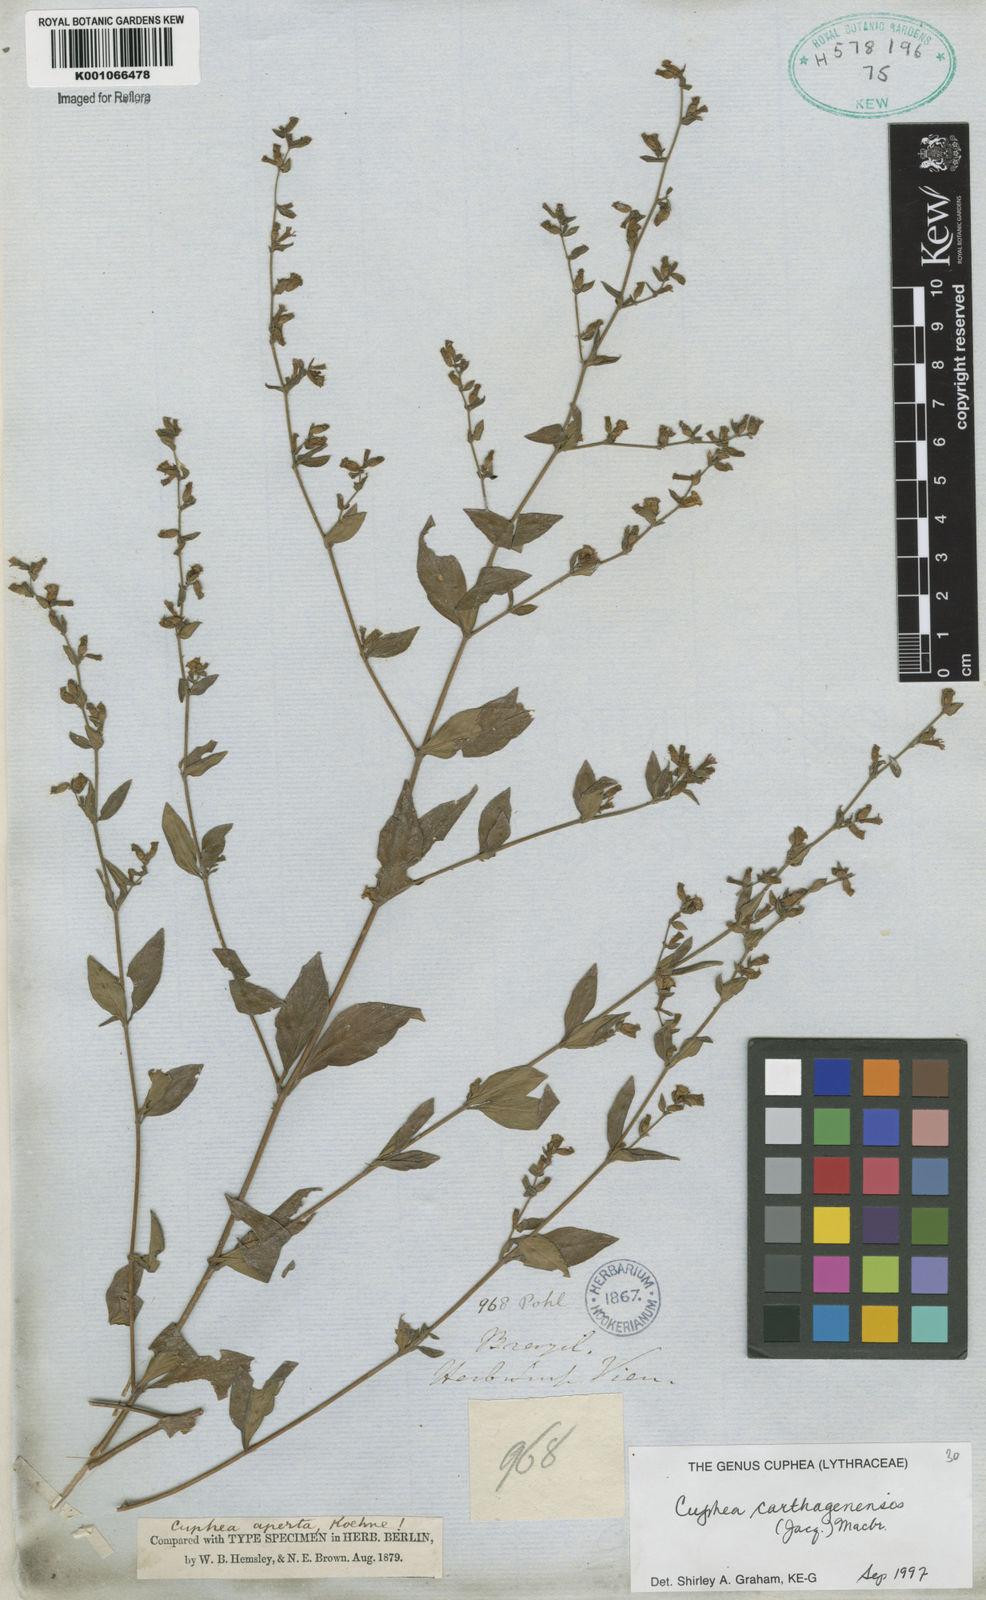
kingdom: Plantae
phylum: Tracheophyta
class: Magnoliopsida
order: Myrtales
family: Lythraceae
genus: Cuphea
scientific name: Cuphea carthagenensis
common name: Colombian waxweed
